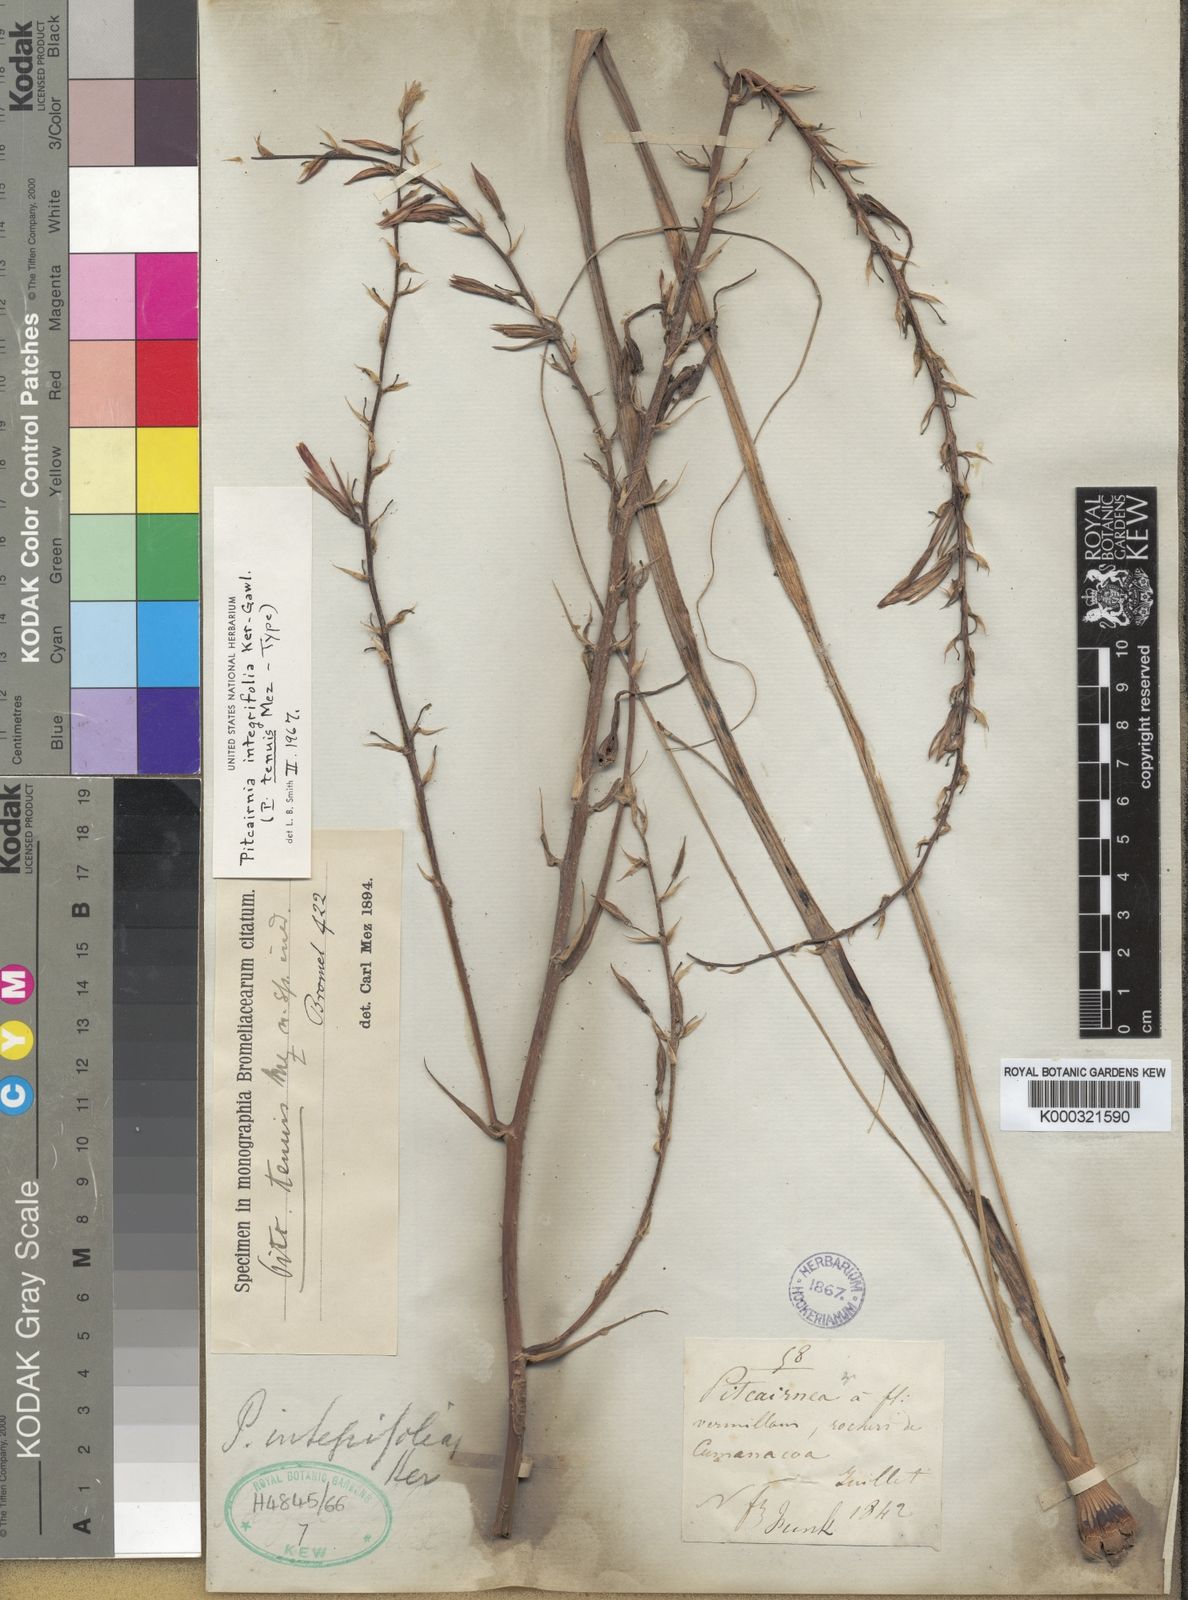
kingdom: Plantae
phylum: Tracheophyta
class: Liliopsida
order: Poales
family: Bromeliaceae
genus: Pitcairnia
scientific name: Pitcairnia integrifolia
